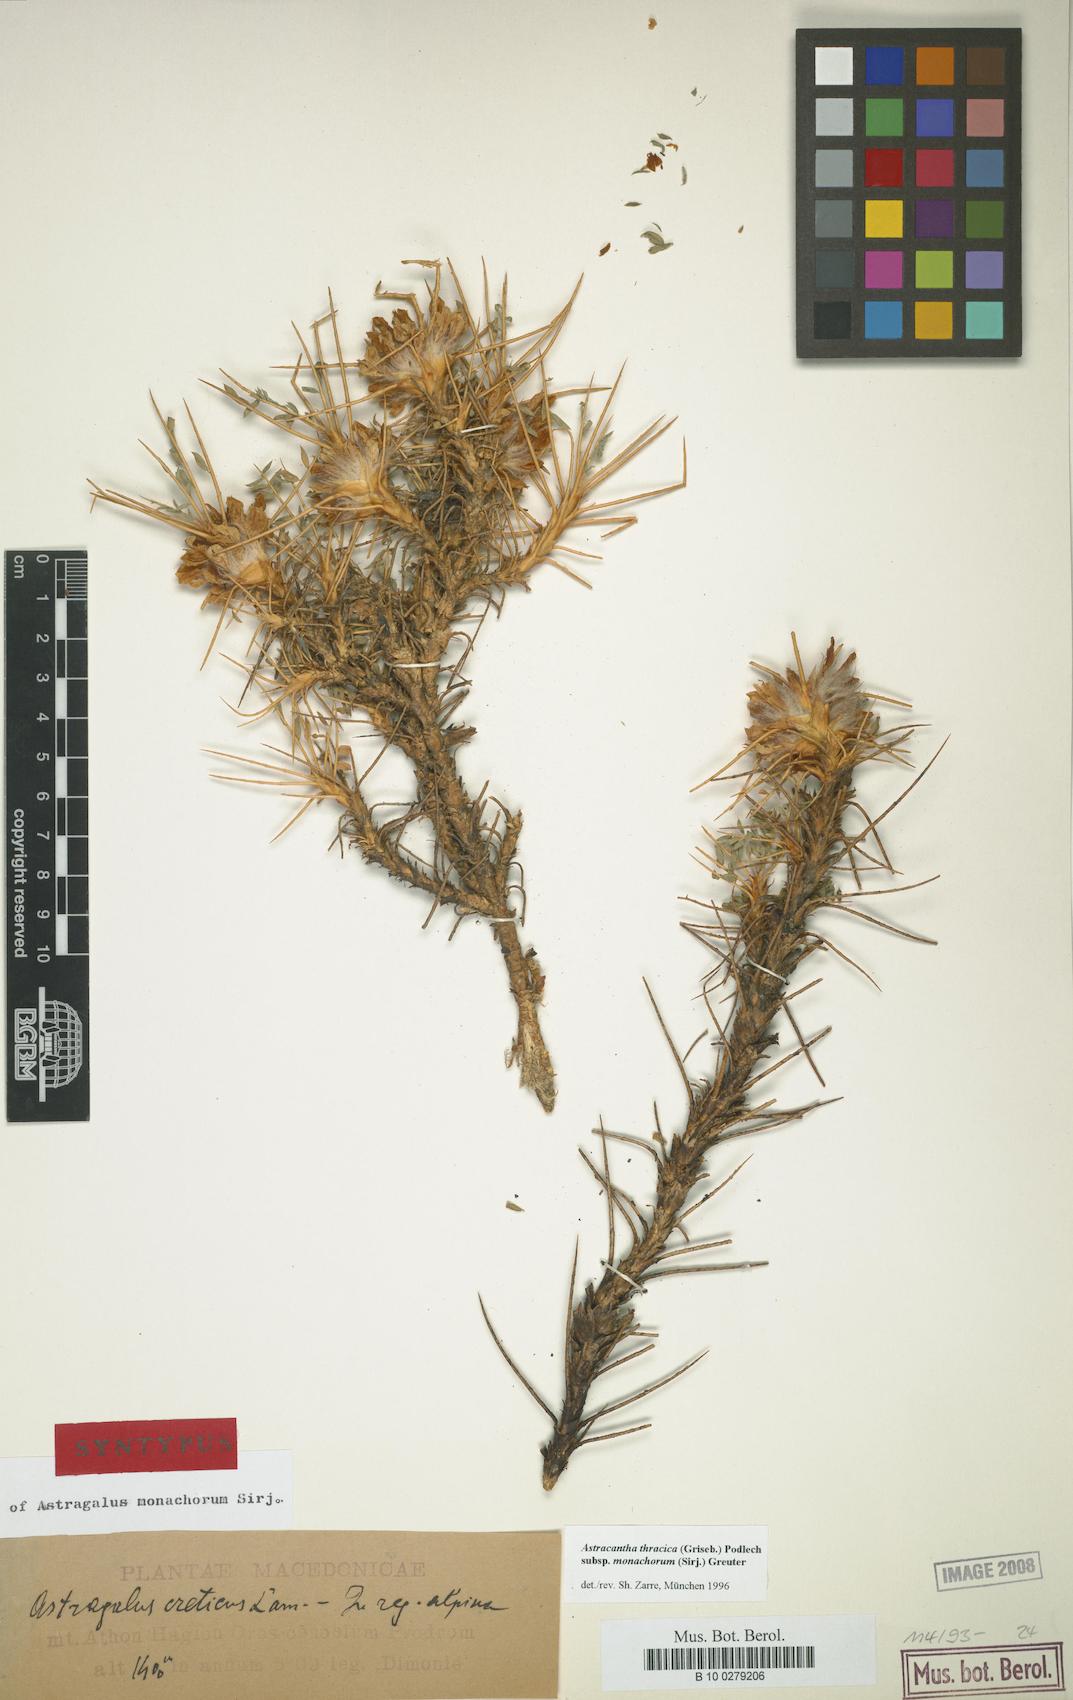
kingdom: Plantae
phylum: Tracheophyta
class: Magnoliopsida
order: Fabales
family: Fabaceae
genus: Astragalus
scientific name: Astragalus thracicus
